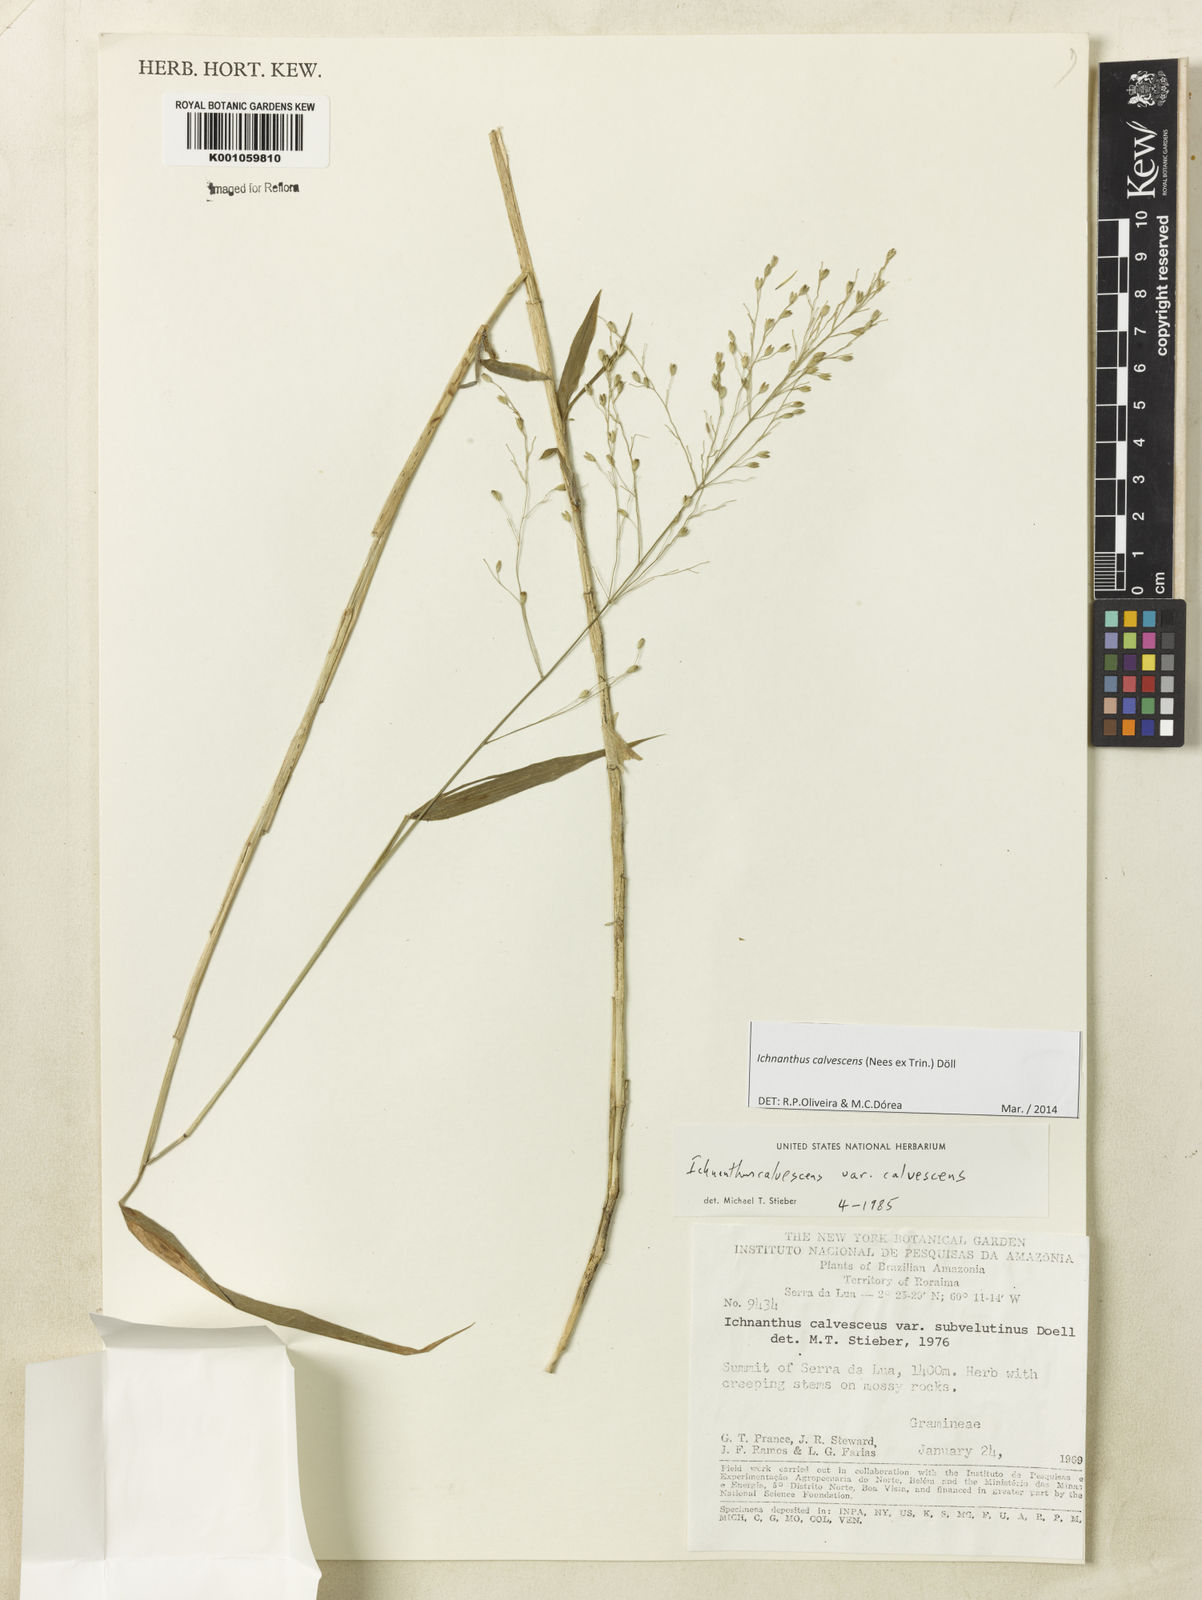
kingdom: Plantae
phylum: Tracheophyta
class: Liliopsida
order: Poales
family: Poaceae
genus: Ichnanthus
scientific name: Ichnanthus
